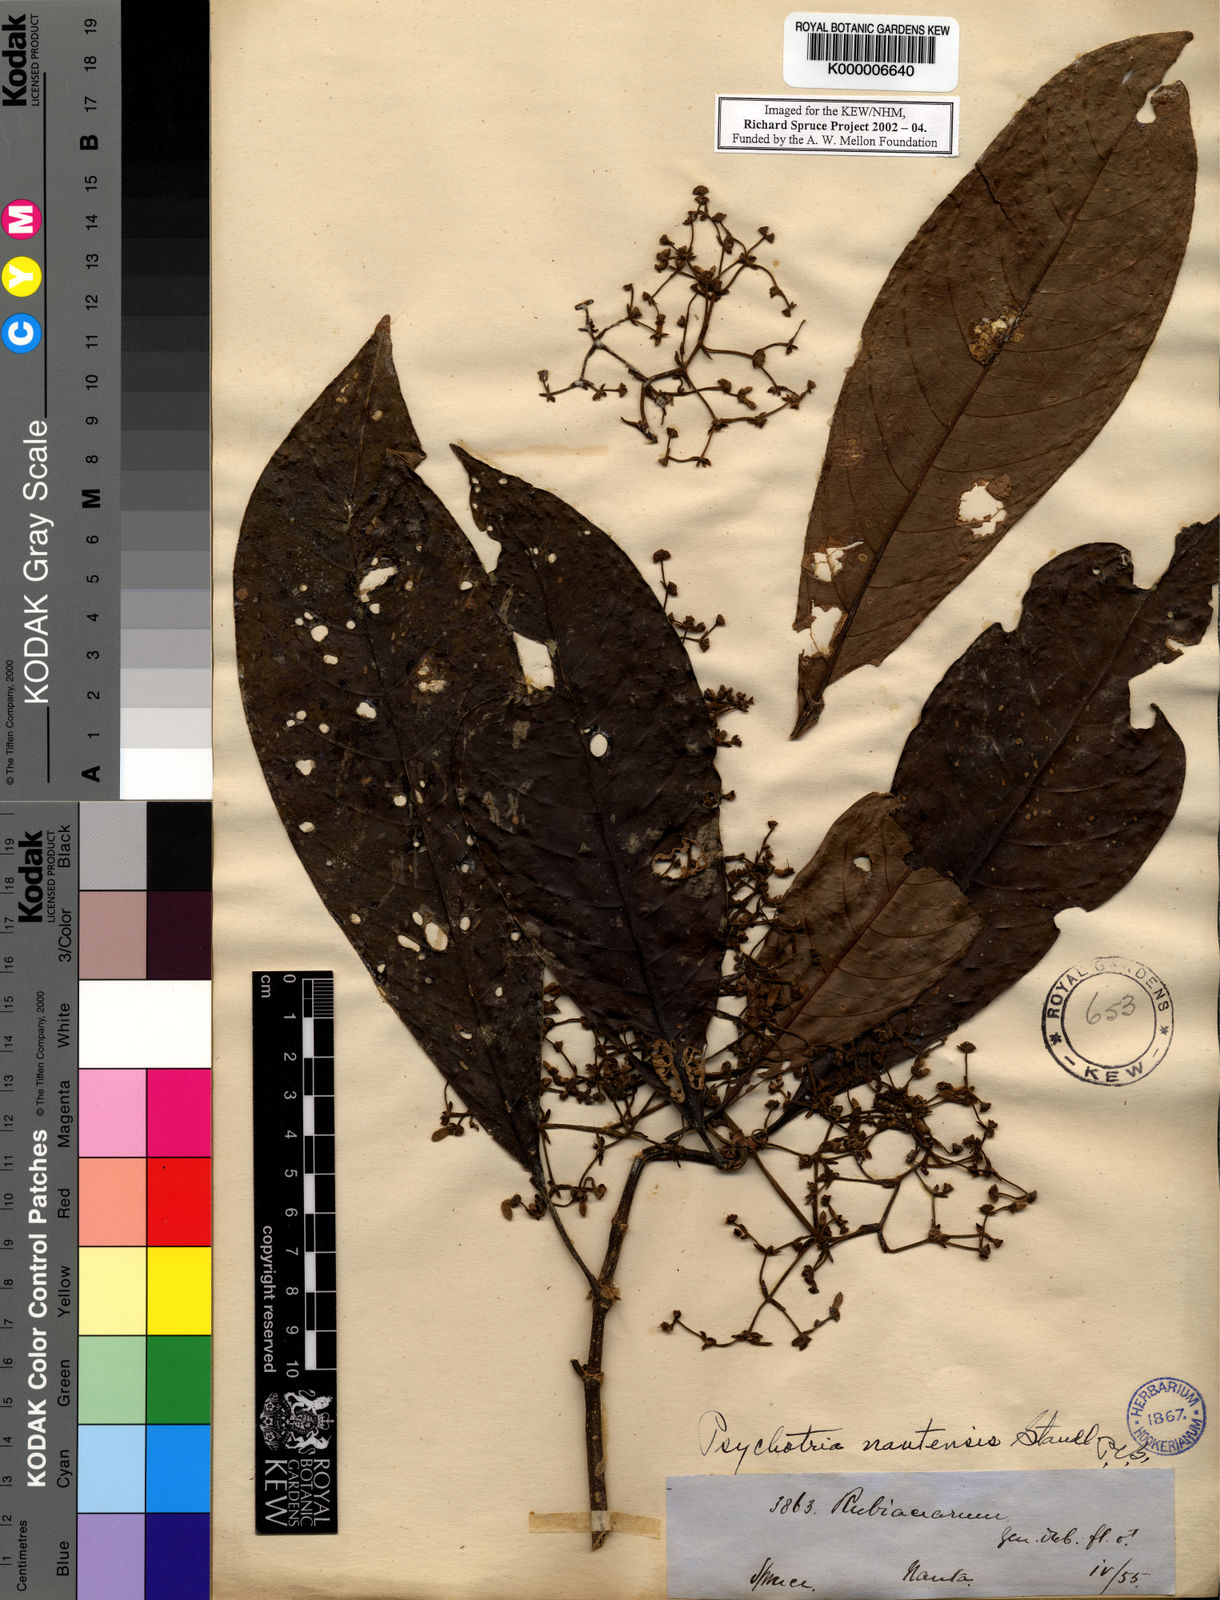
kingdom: Plantae
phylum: Tracheophyta
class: Magnoliopsida
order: Gentianales
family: Rubiaceae
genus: Palicourea
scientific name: Palicourea nautensis
